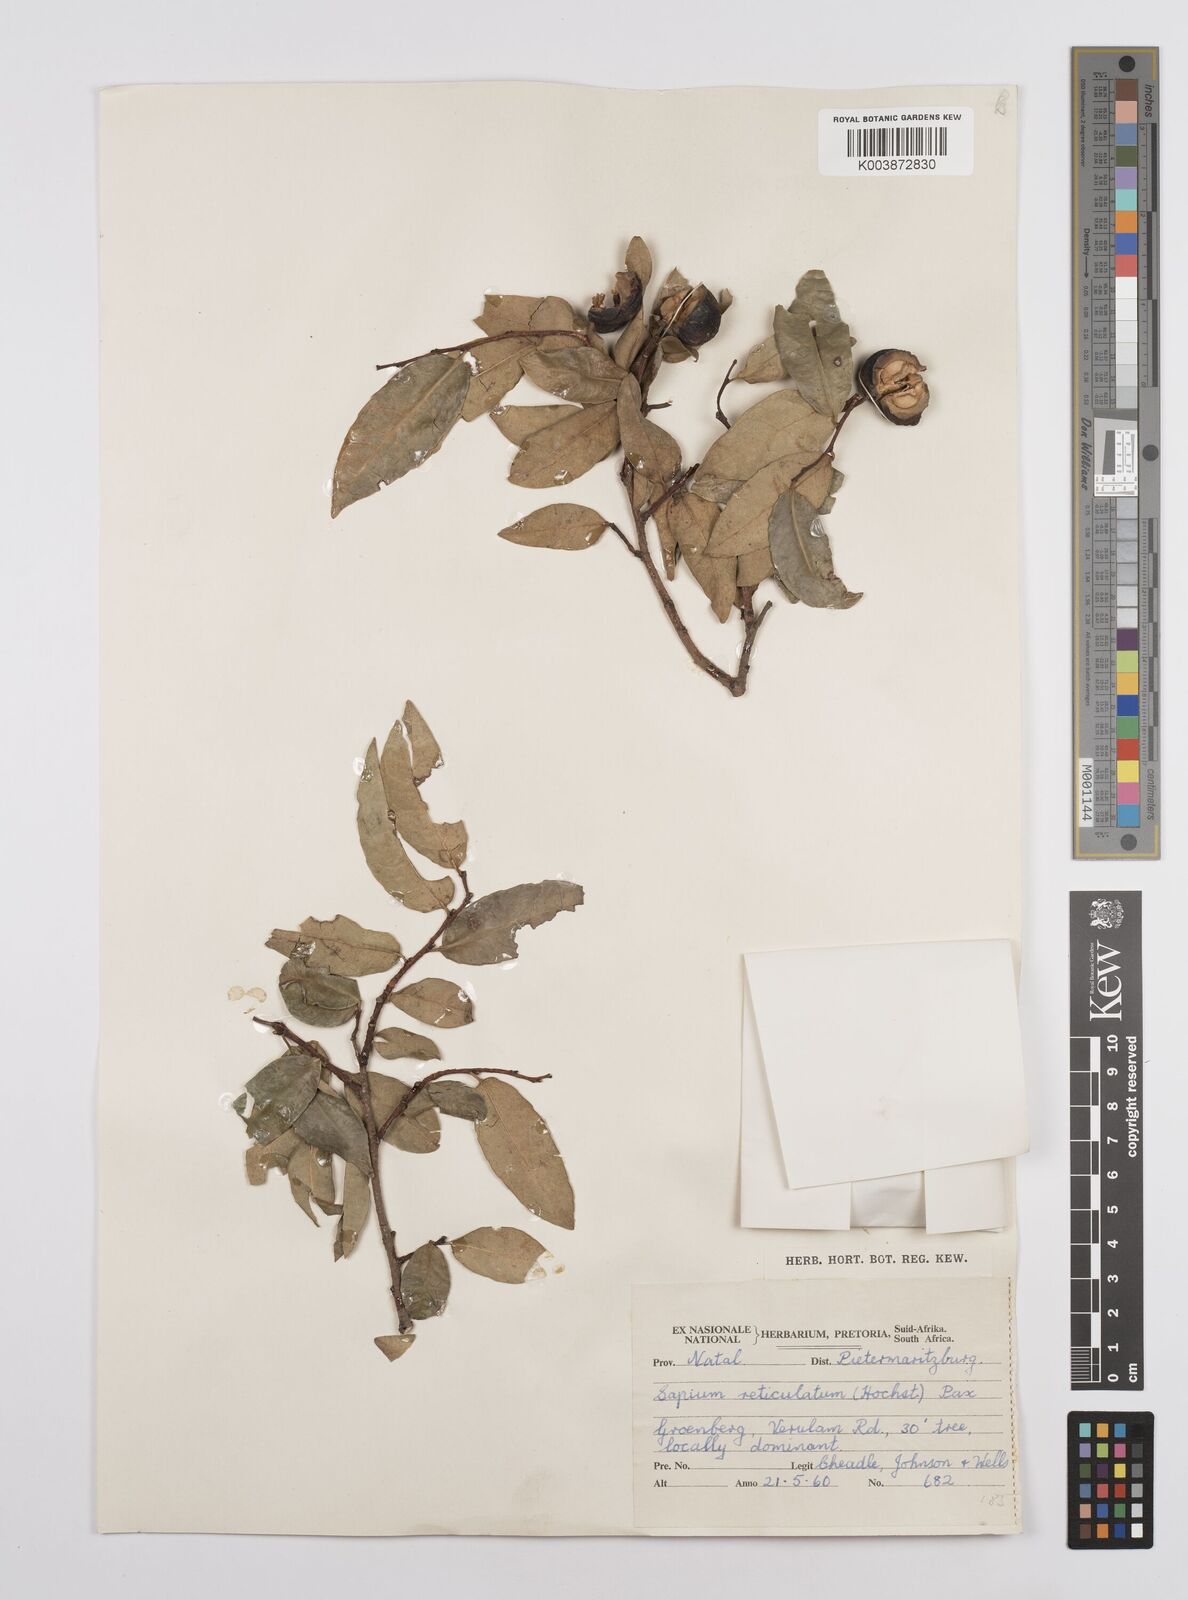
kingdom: Plantae
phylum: Tracheophyta
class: Magnoliopsida
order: Malpighiales
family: Euphorbiaceae
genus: Sclerocroton
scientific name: Sclerocroton integerrimus
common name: Duiker berry
